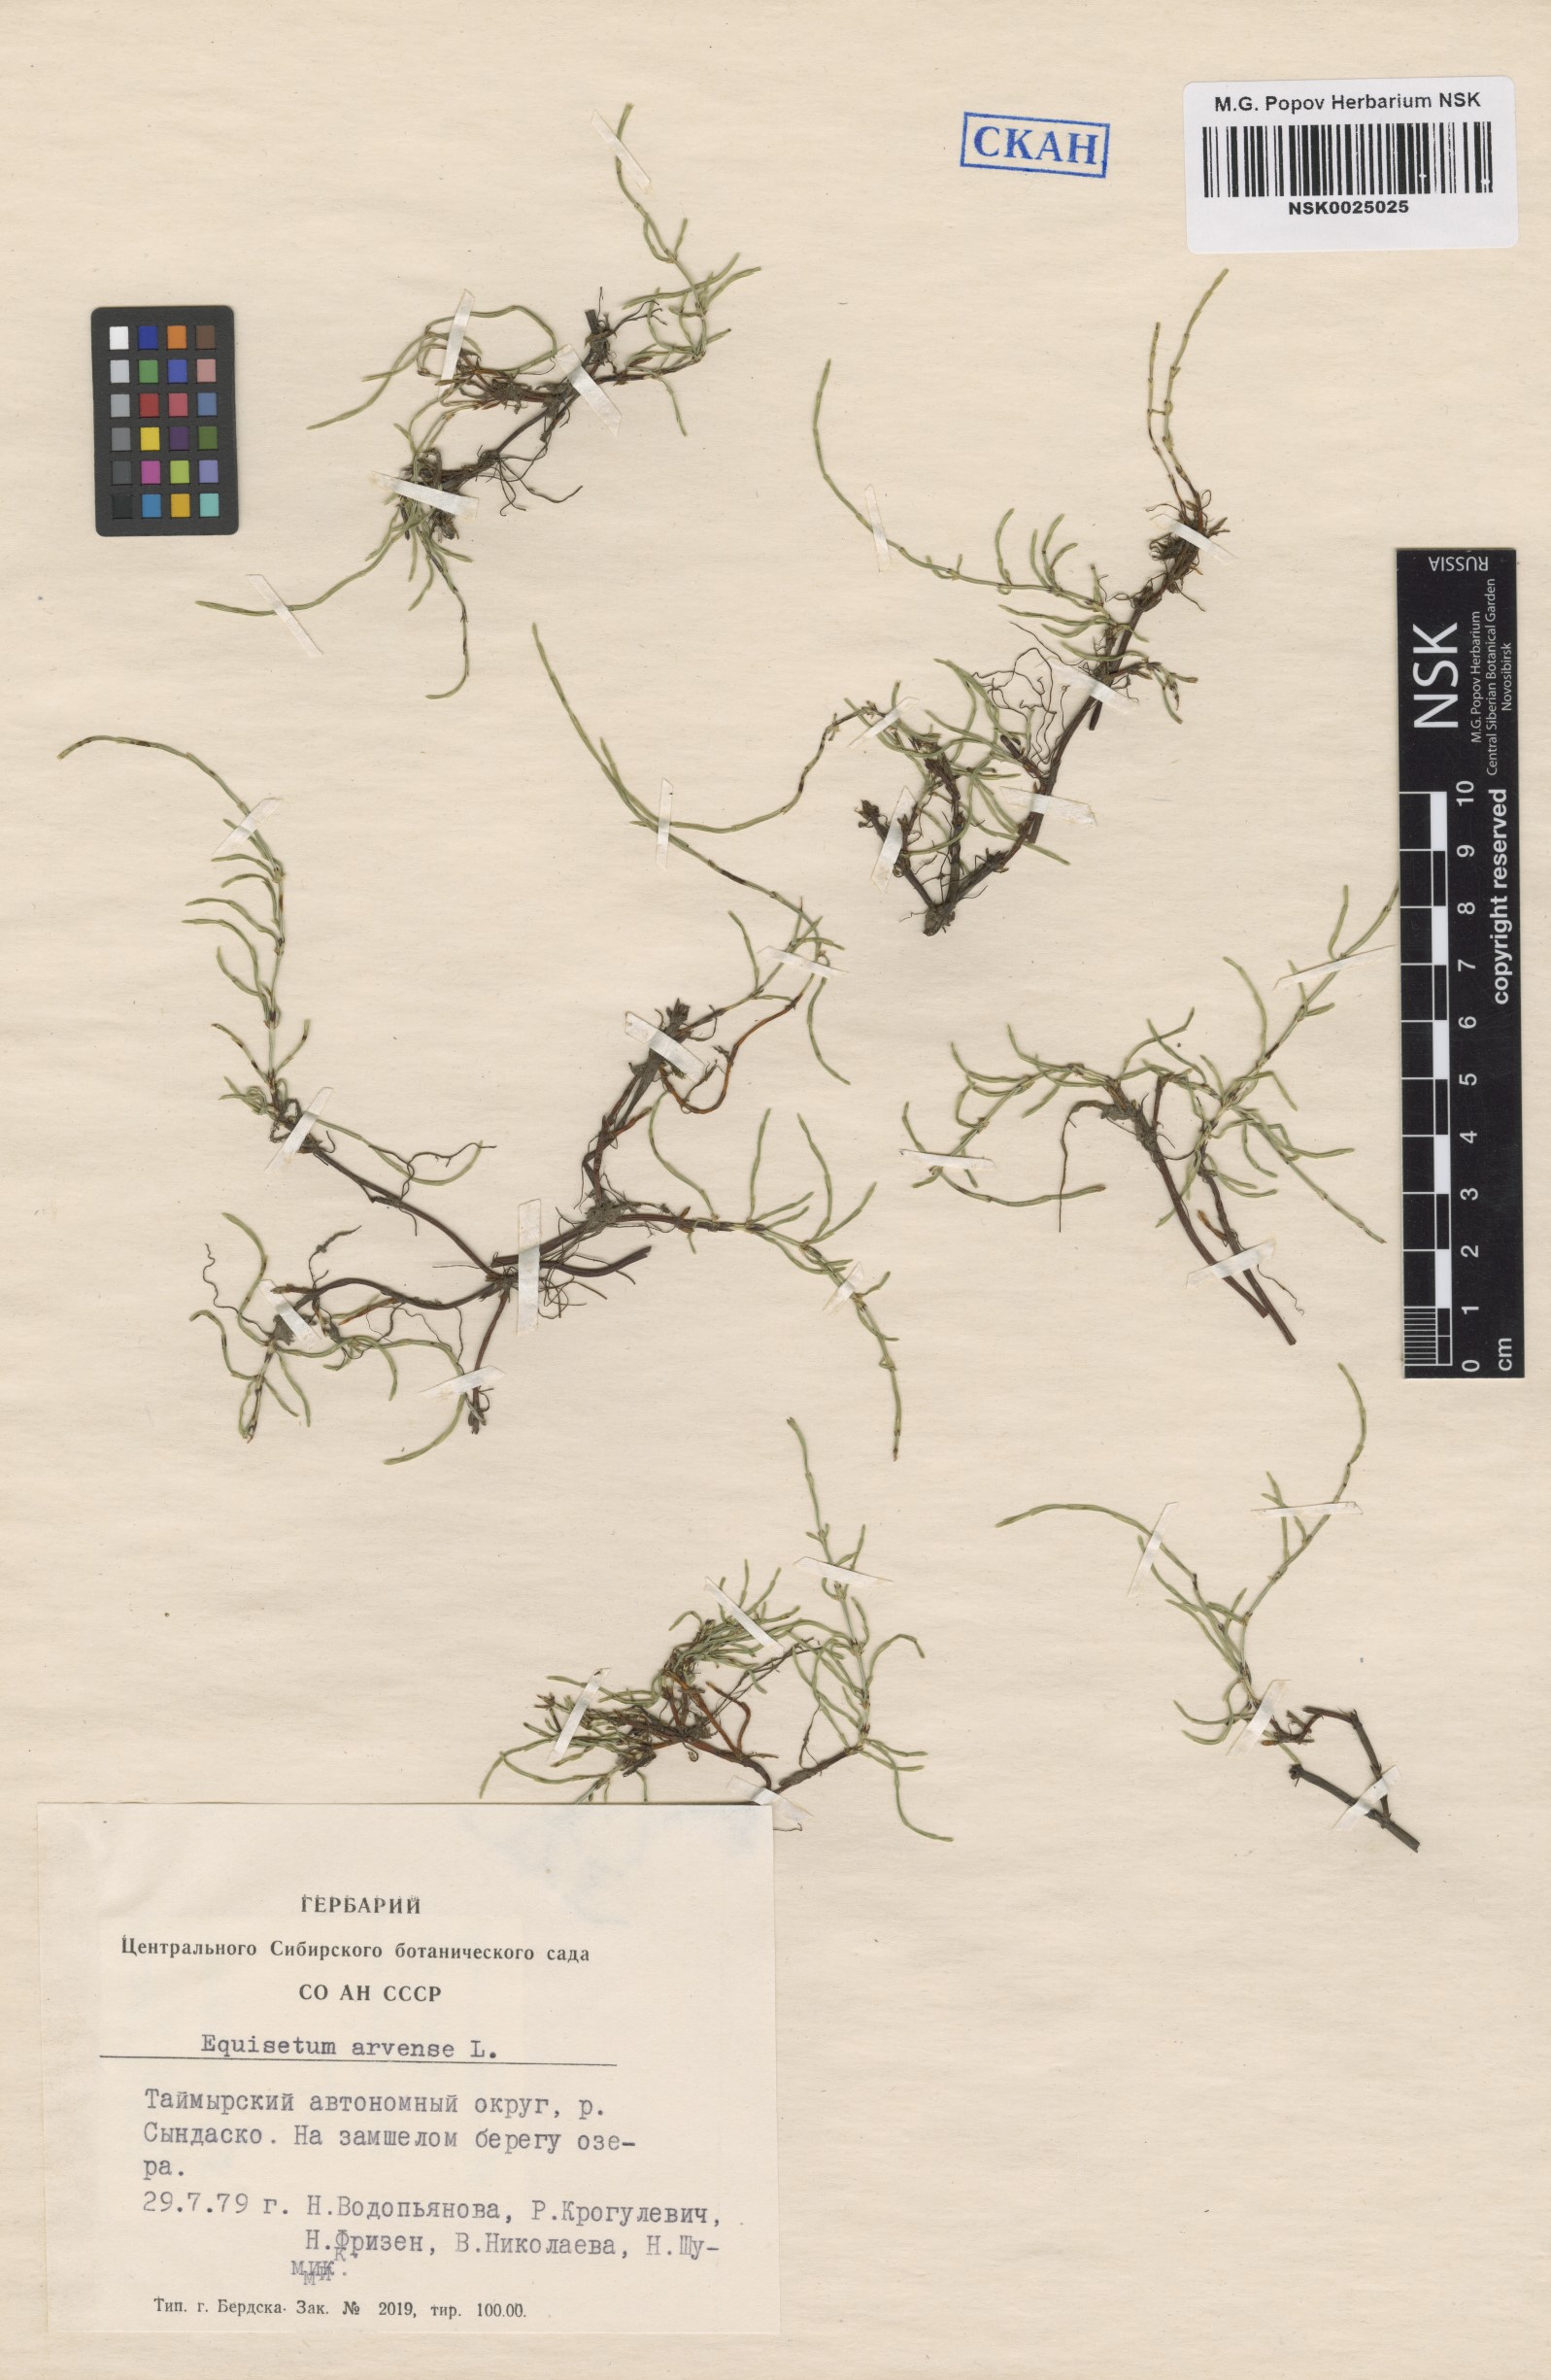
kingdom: Plantae
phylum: Tracheophyta
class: Polypodiopsida
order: Equisetales
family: Equisetaceae
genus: Equisetum
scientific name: Equisetum arvense
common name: Field horsetail
